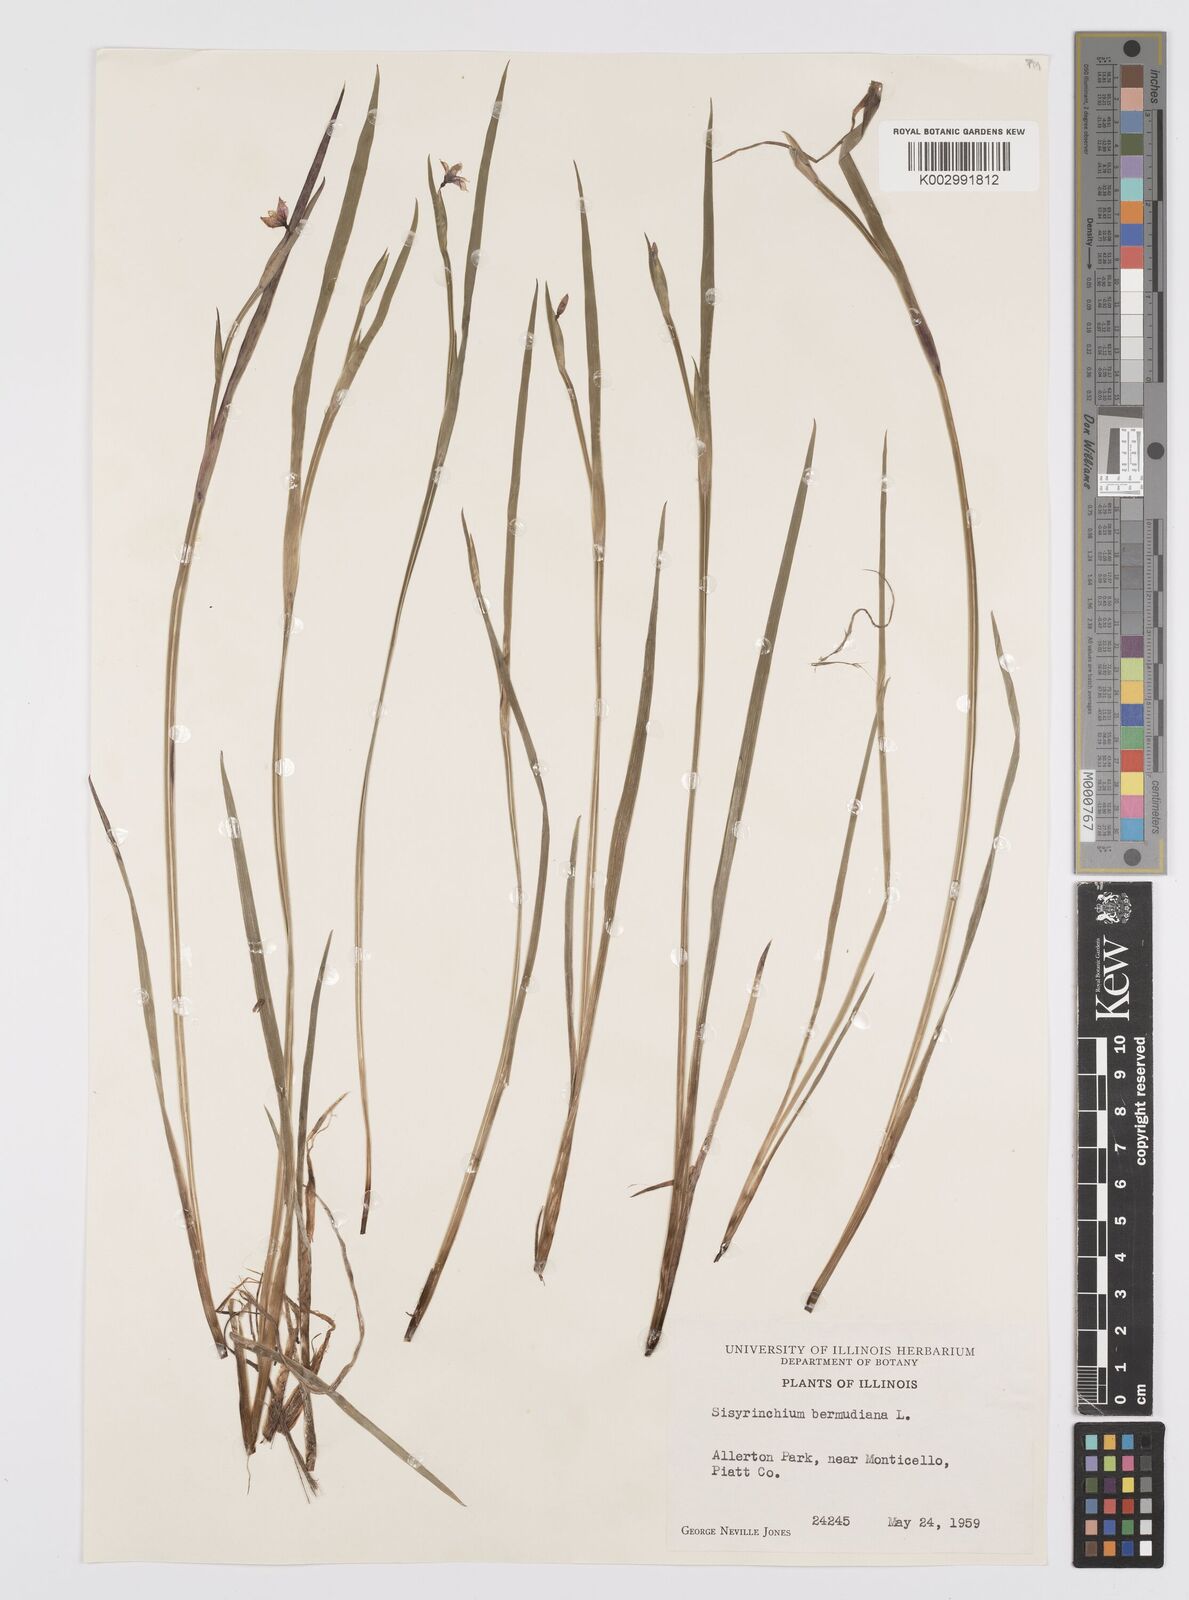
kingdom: Plantae
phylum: Tracheophyta
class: Liliopsida
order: Asparagales
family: Iridaceae
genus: Sisyrinchium
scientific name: Sisyrinchium bermudiana
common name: Blue-eyed-grass
